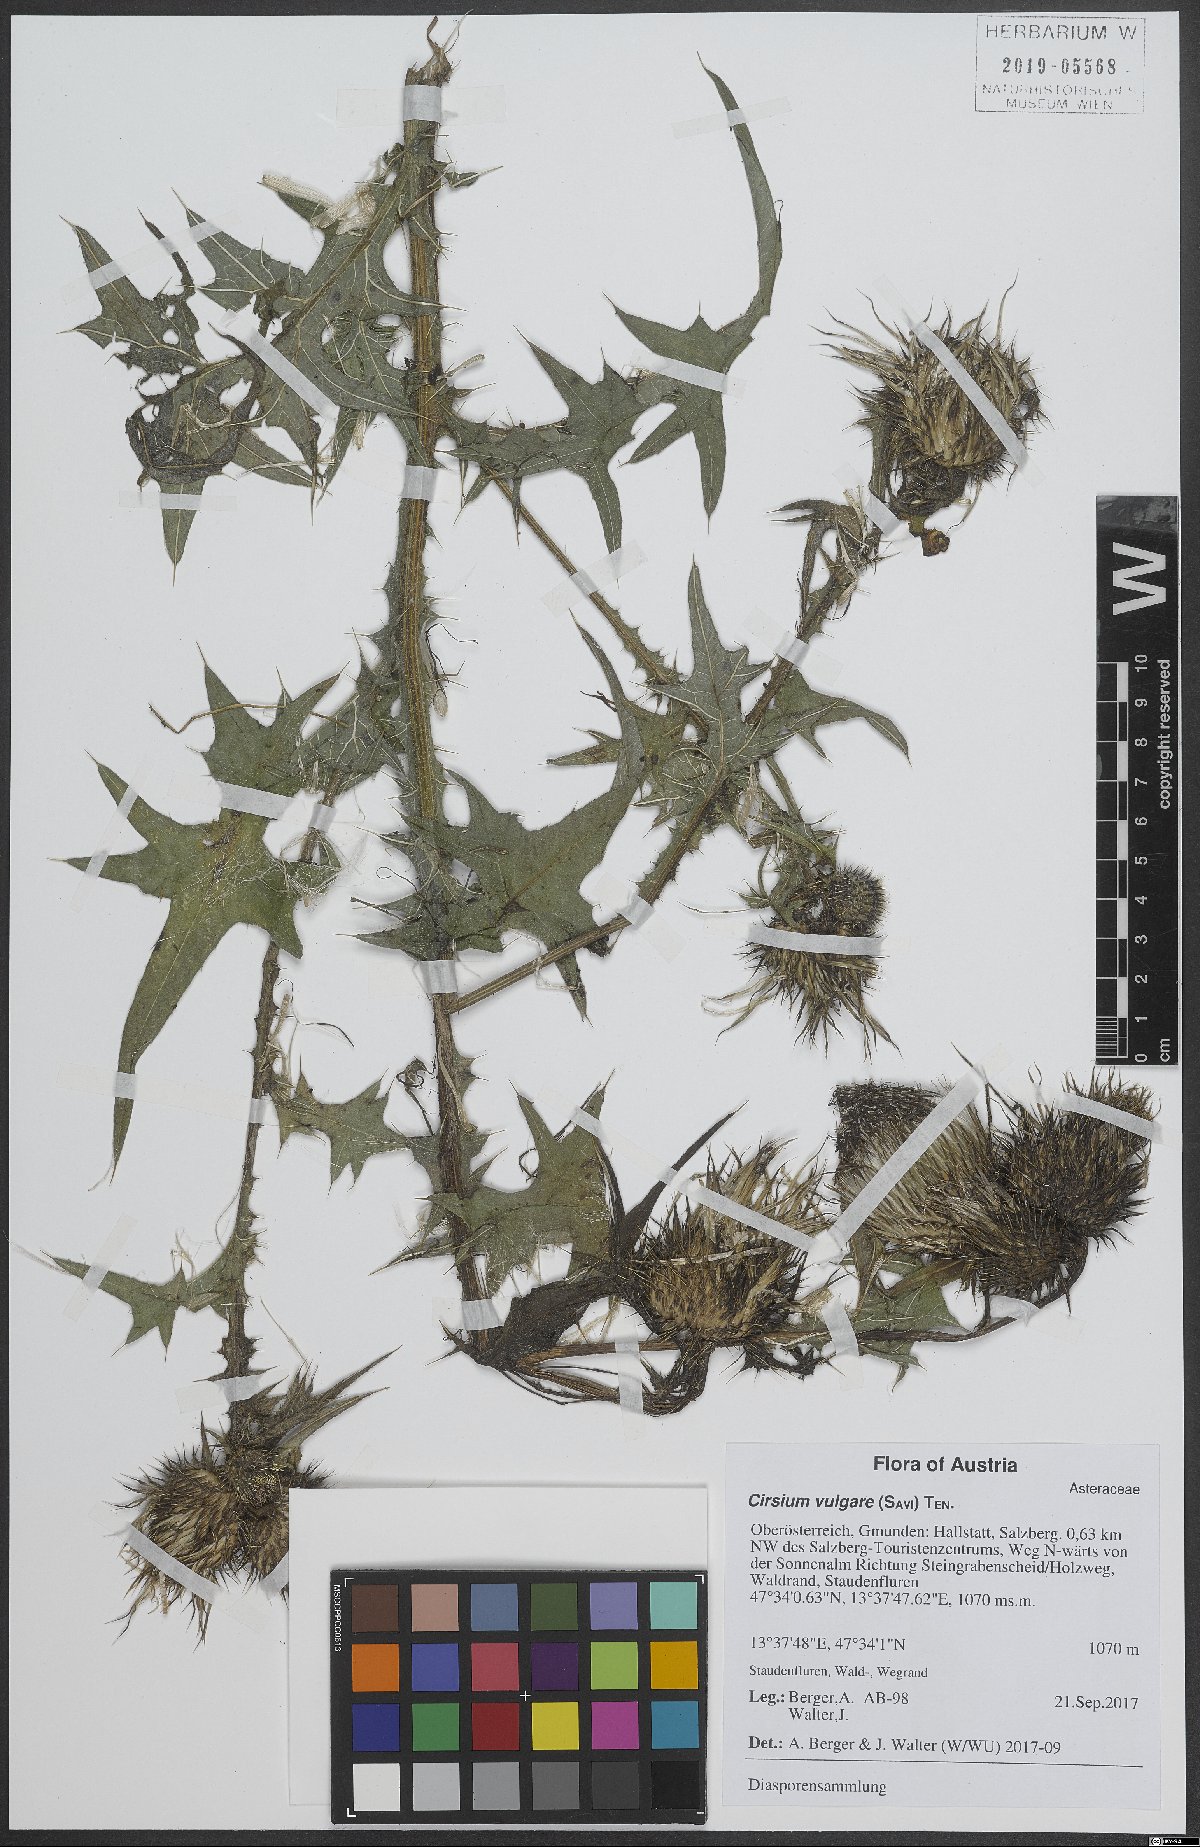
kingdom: Plantae
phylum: Tracheophyta
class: Magnoliopsida
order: Asterales
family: Asteraceae
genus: Cirsium
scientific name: Cirsium vulgare
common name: Bull thistle
